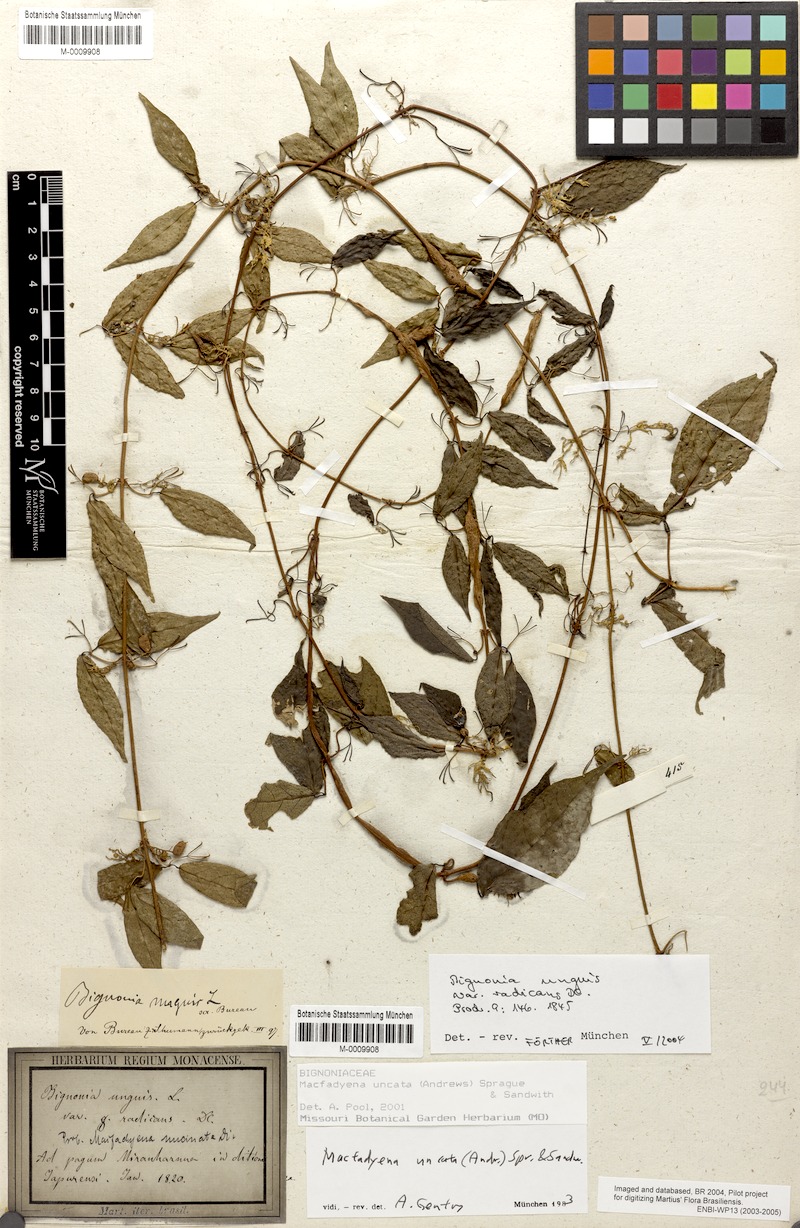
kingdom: Plantae
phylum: Tracheophyta
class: Magnoliopsida
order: Lamiales
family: Bignoniaceae
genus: Dolichandra
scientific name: Dolichandra uncata
